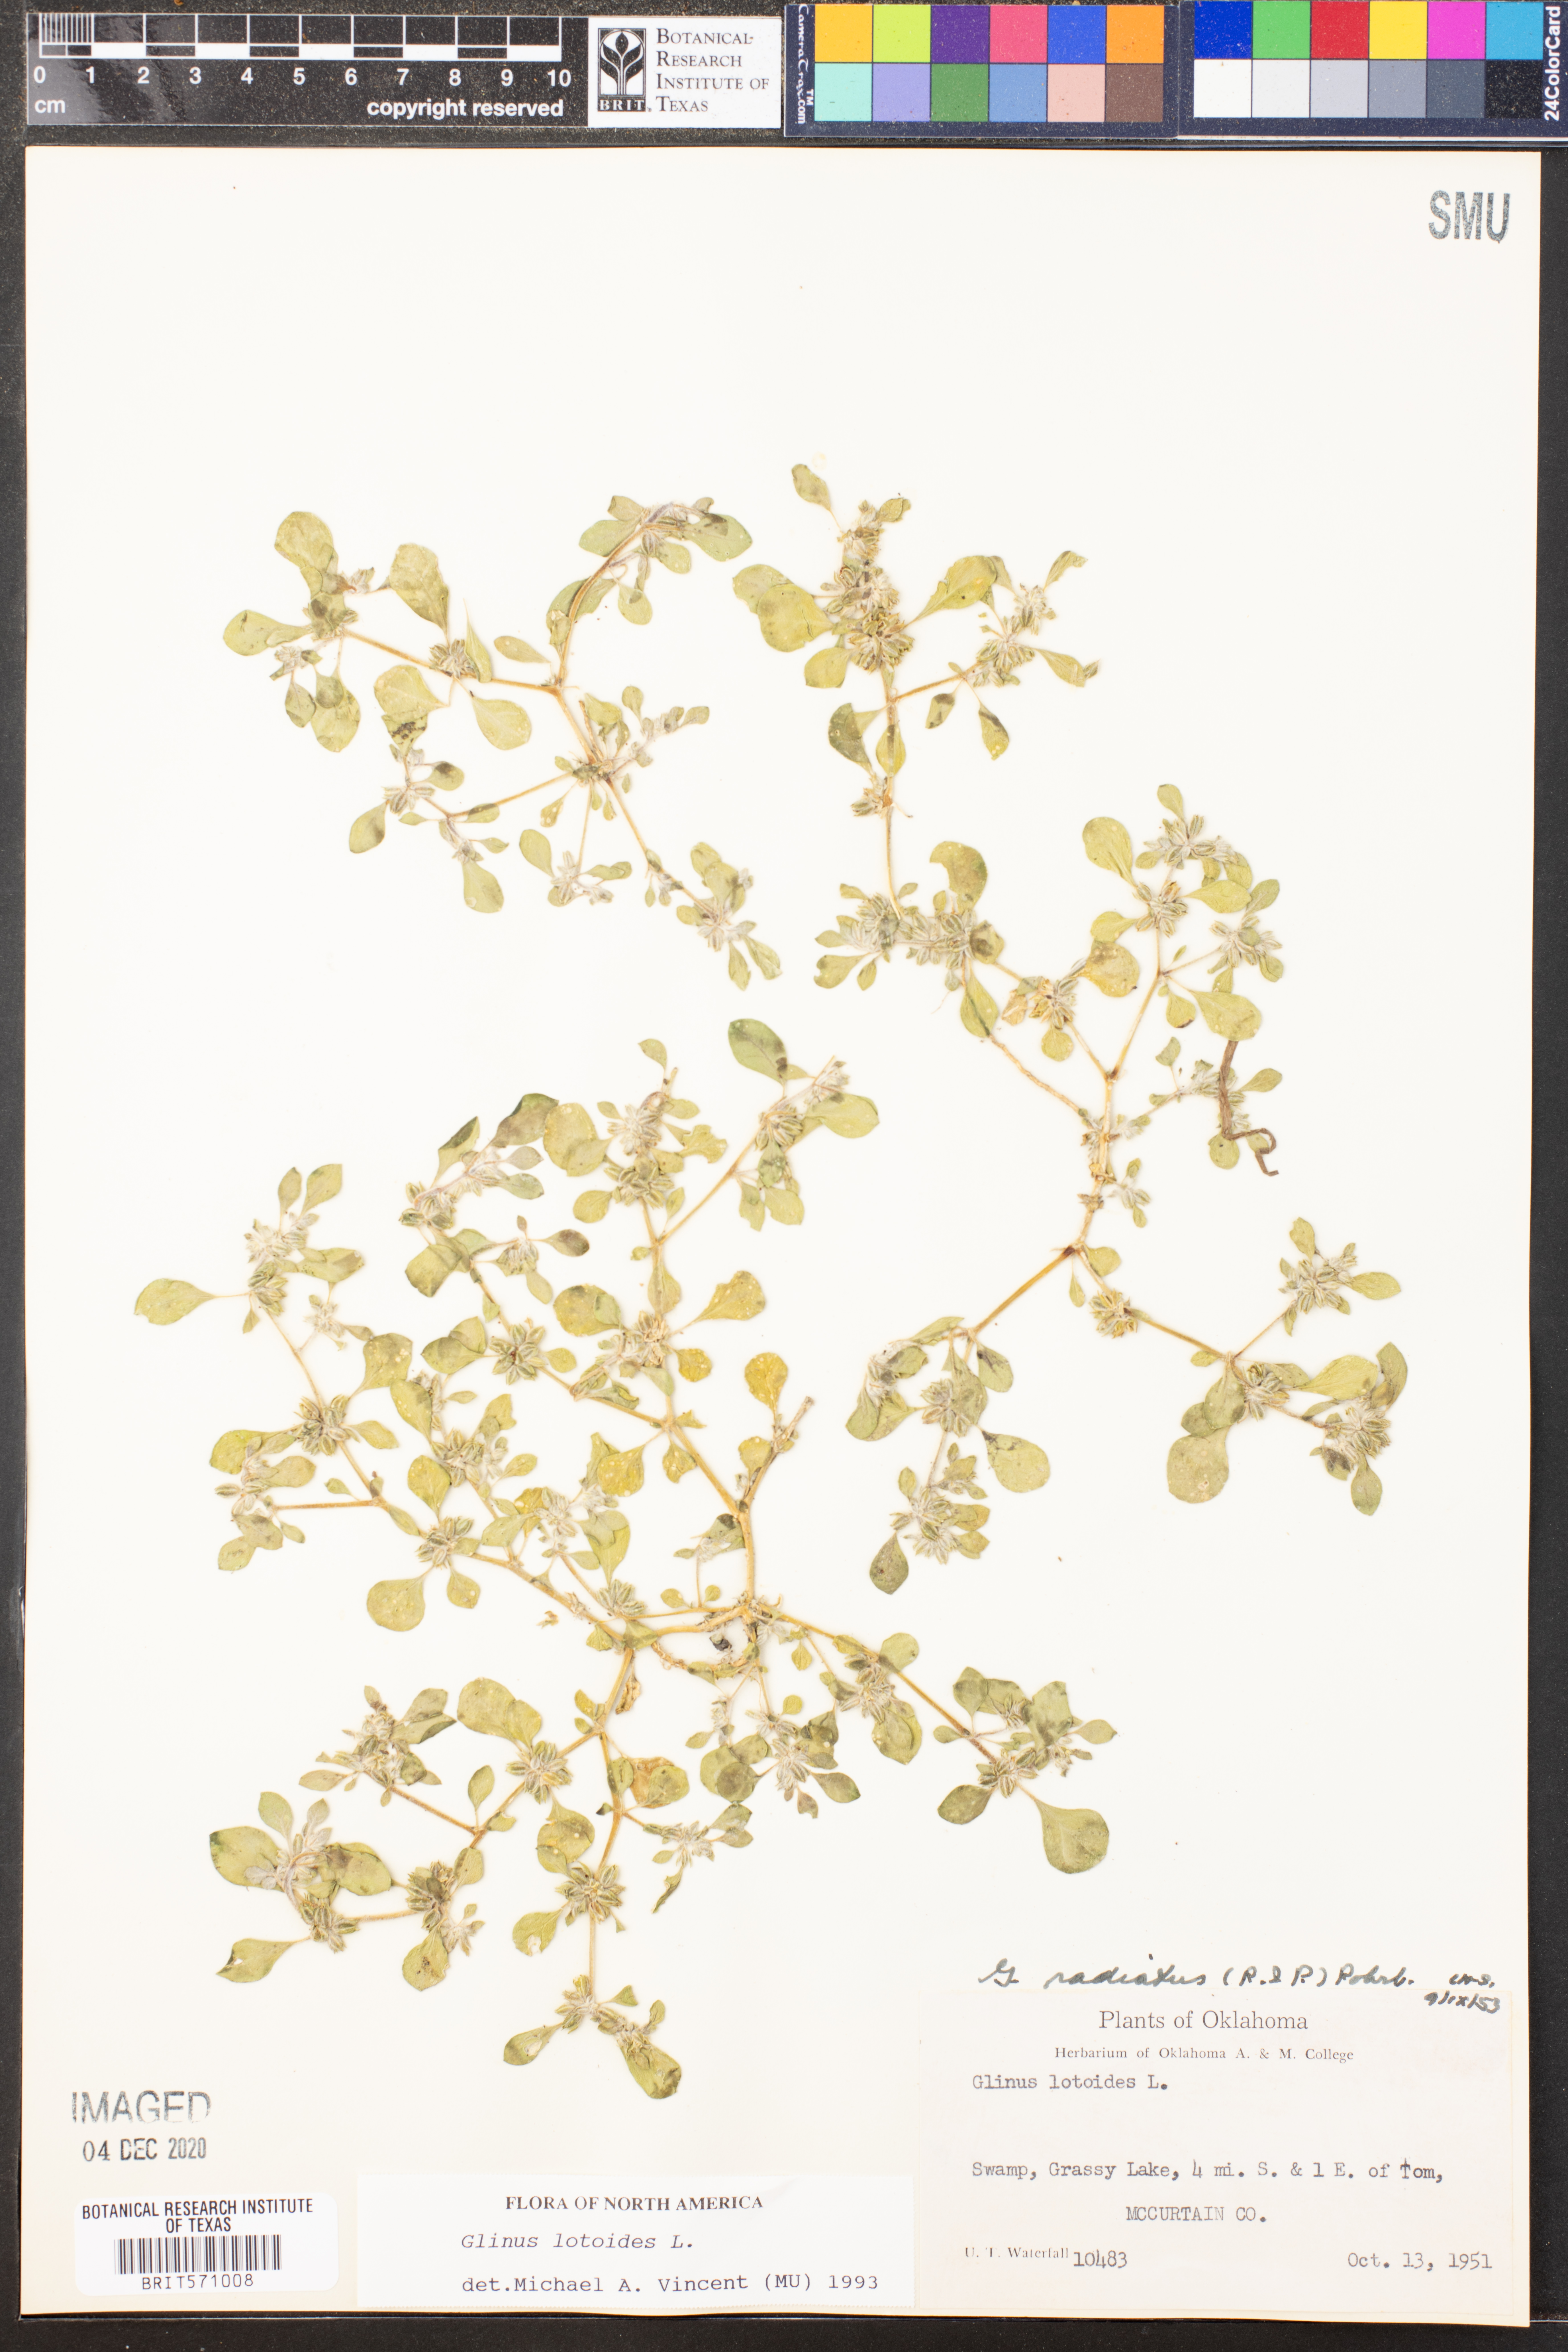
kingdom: Plantae
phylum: Tracheophyta
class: Magnoliopsida
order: Caryophyllales
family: Molluginaceae
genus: Glinus
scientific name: Glinus radiatus
